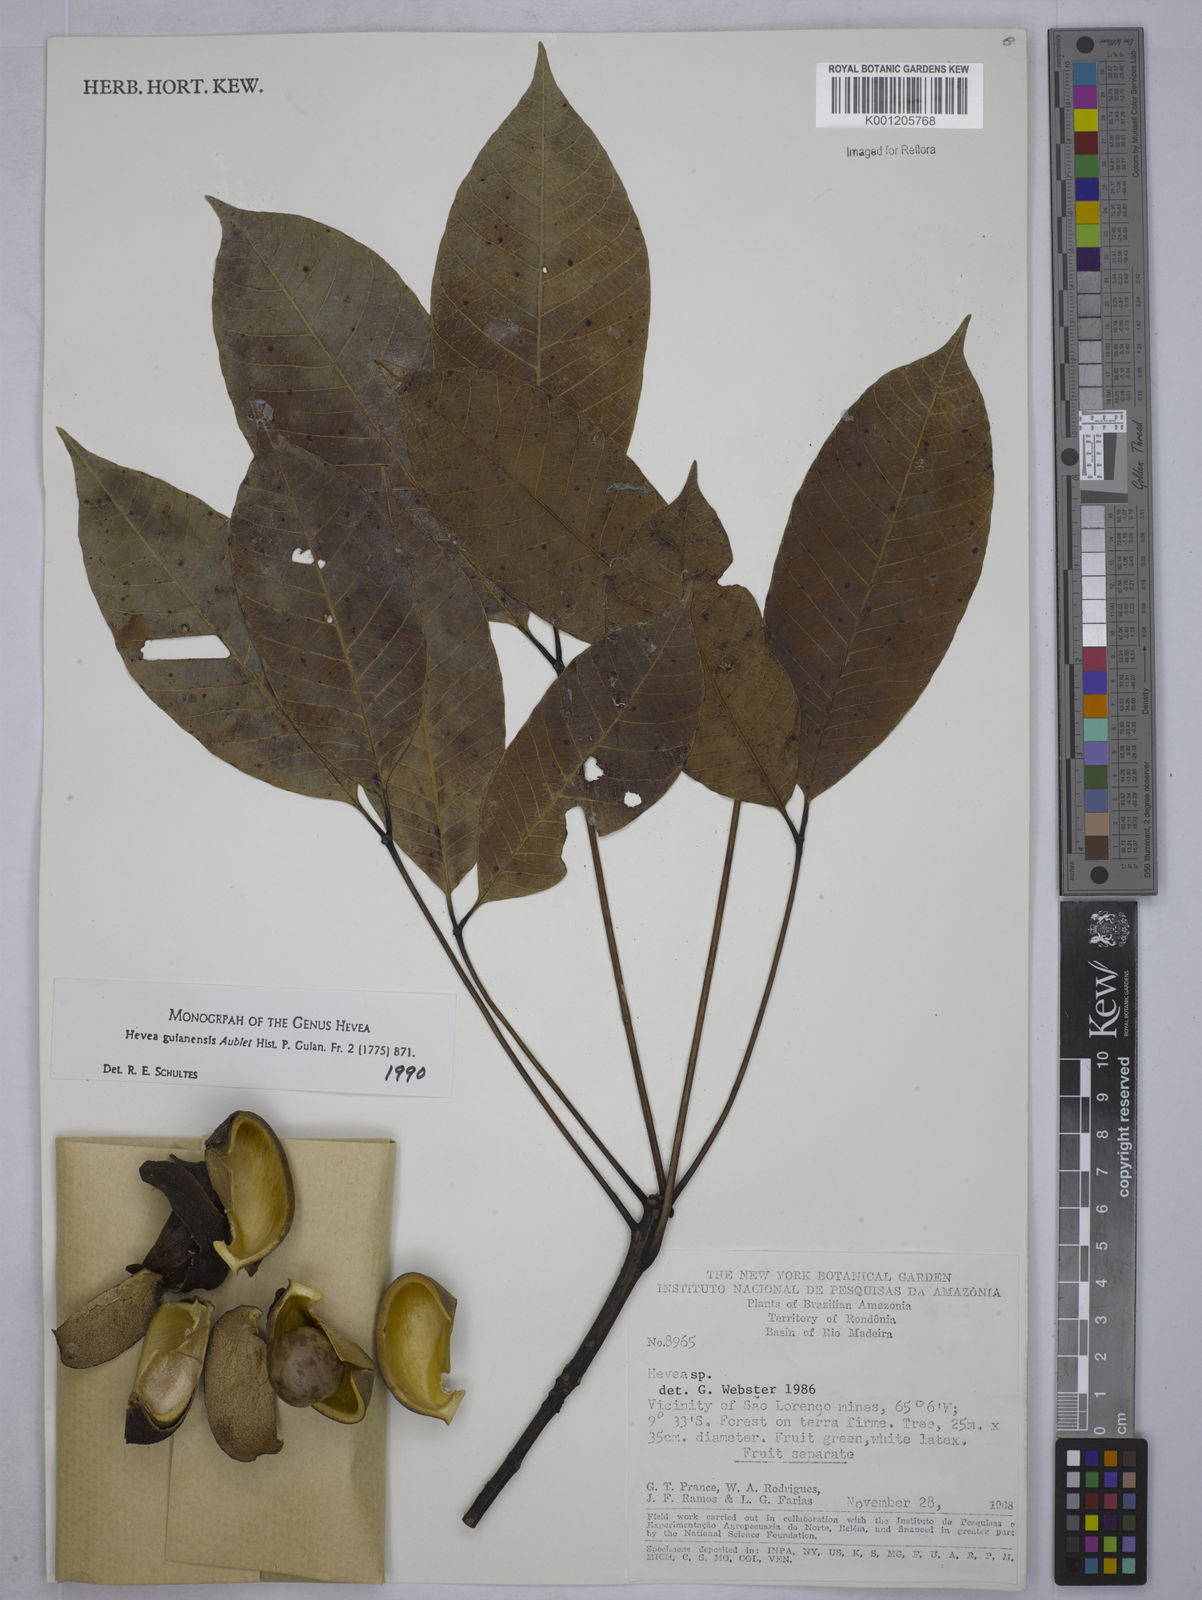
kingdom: Plantae
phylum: Tracheophyta
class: Magnoliopsida
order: Malpighiales
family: Euphorbiaceae
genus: Hevea
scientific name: Hevea guianensis
